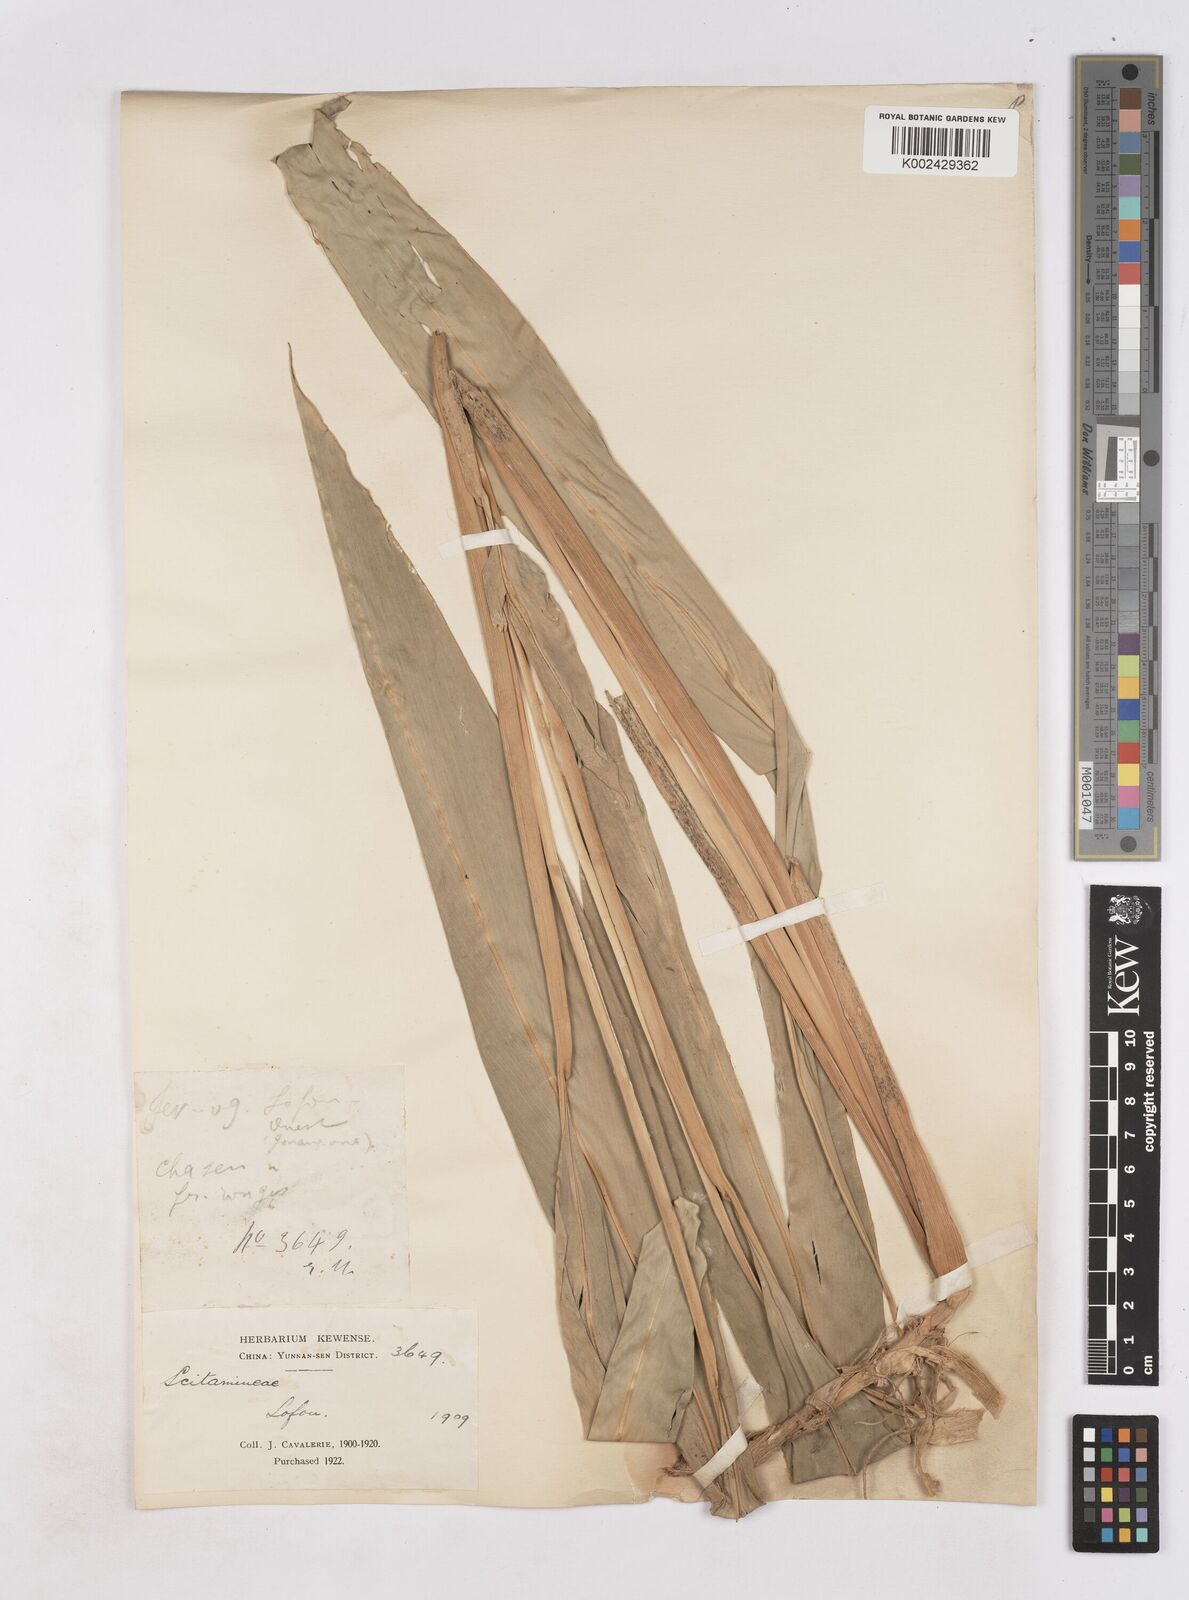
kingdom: Plantae
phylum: Tracheophyta
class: Liliopsida
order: Zingiberales
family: Zingiberaceae
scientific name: Zingiberaceae
